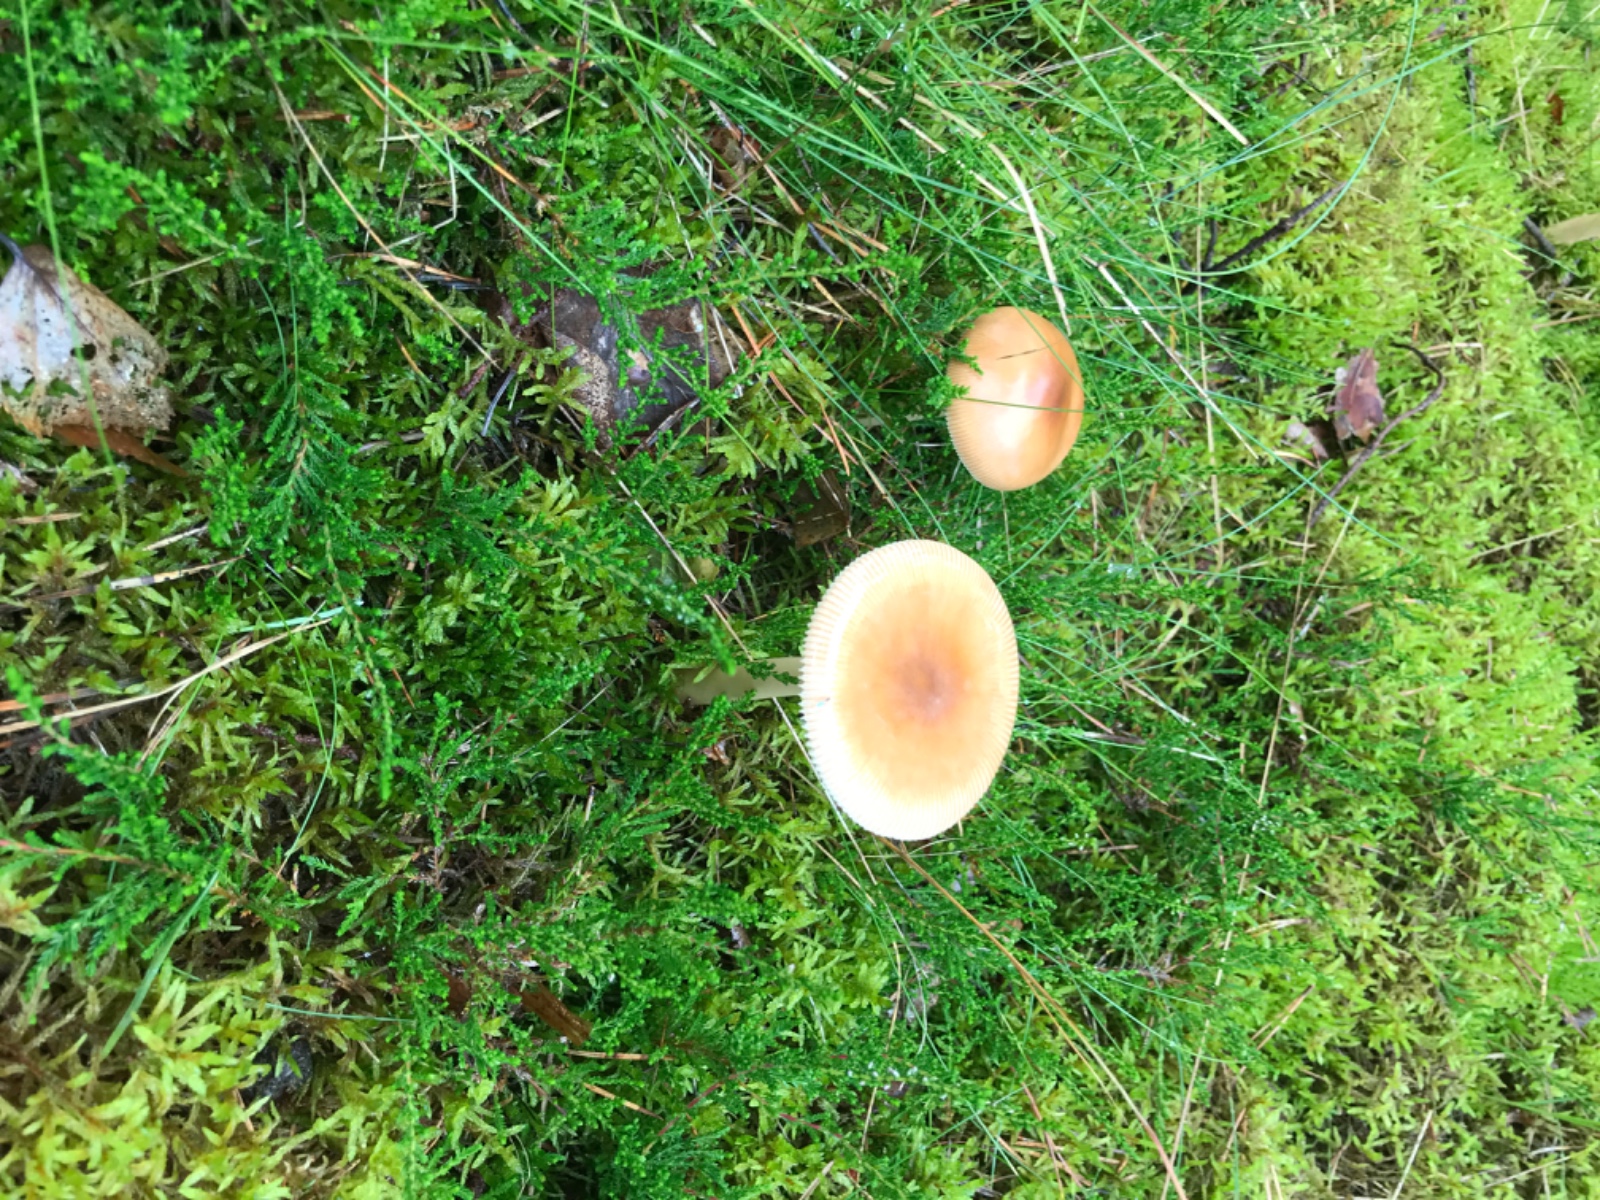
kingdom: Fungi
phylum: Basidiomycota
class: Agaricomycetes
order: Agaricales
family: Amanitaceae
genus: Amanita
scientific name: Amanita fulva
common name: brun kam-fluesvamp
